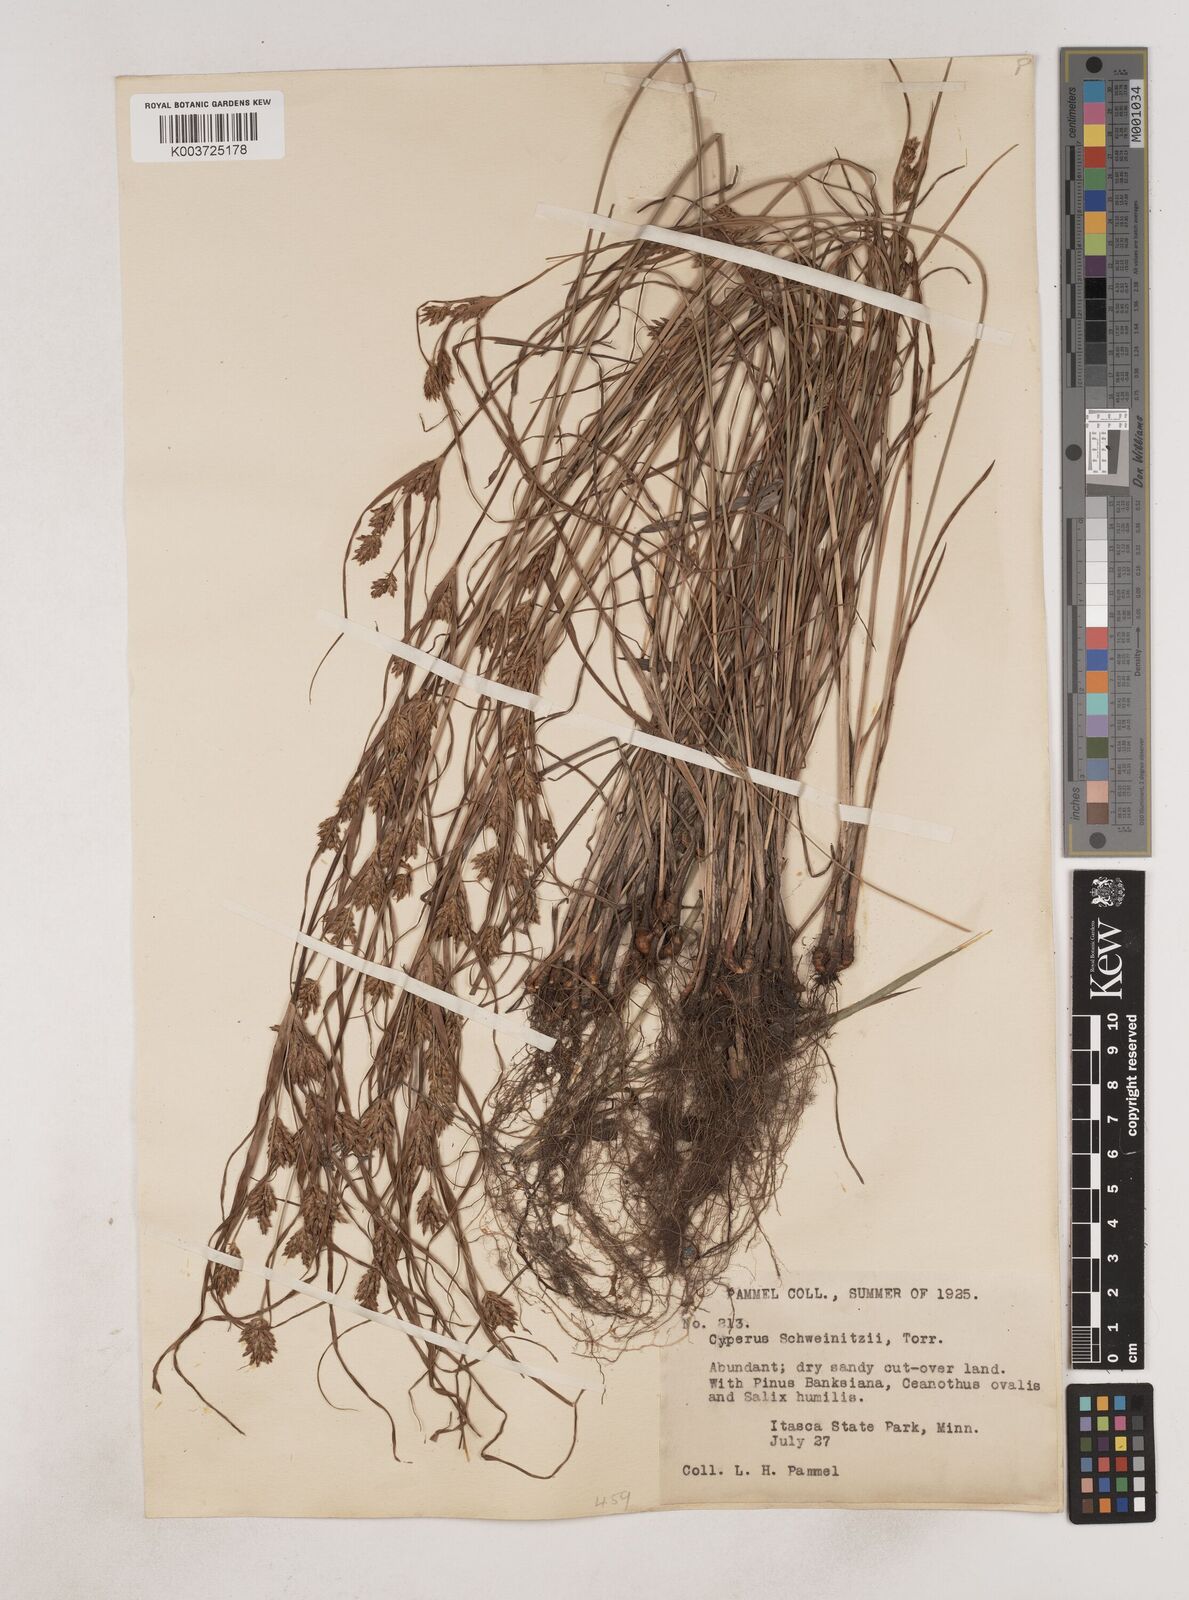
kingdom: Plantae
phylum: Tracheophyta
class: Liliopsida
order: Poales
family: Cyperaceae
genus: Cyperus
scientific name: Cyperus schweinitzii
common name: Schweinitz's cyperus
